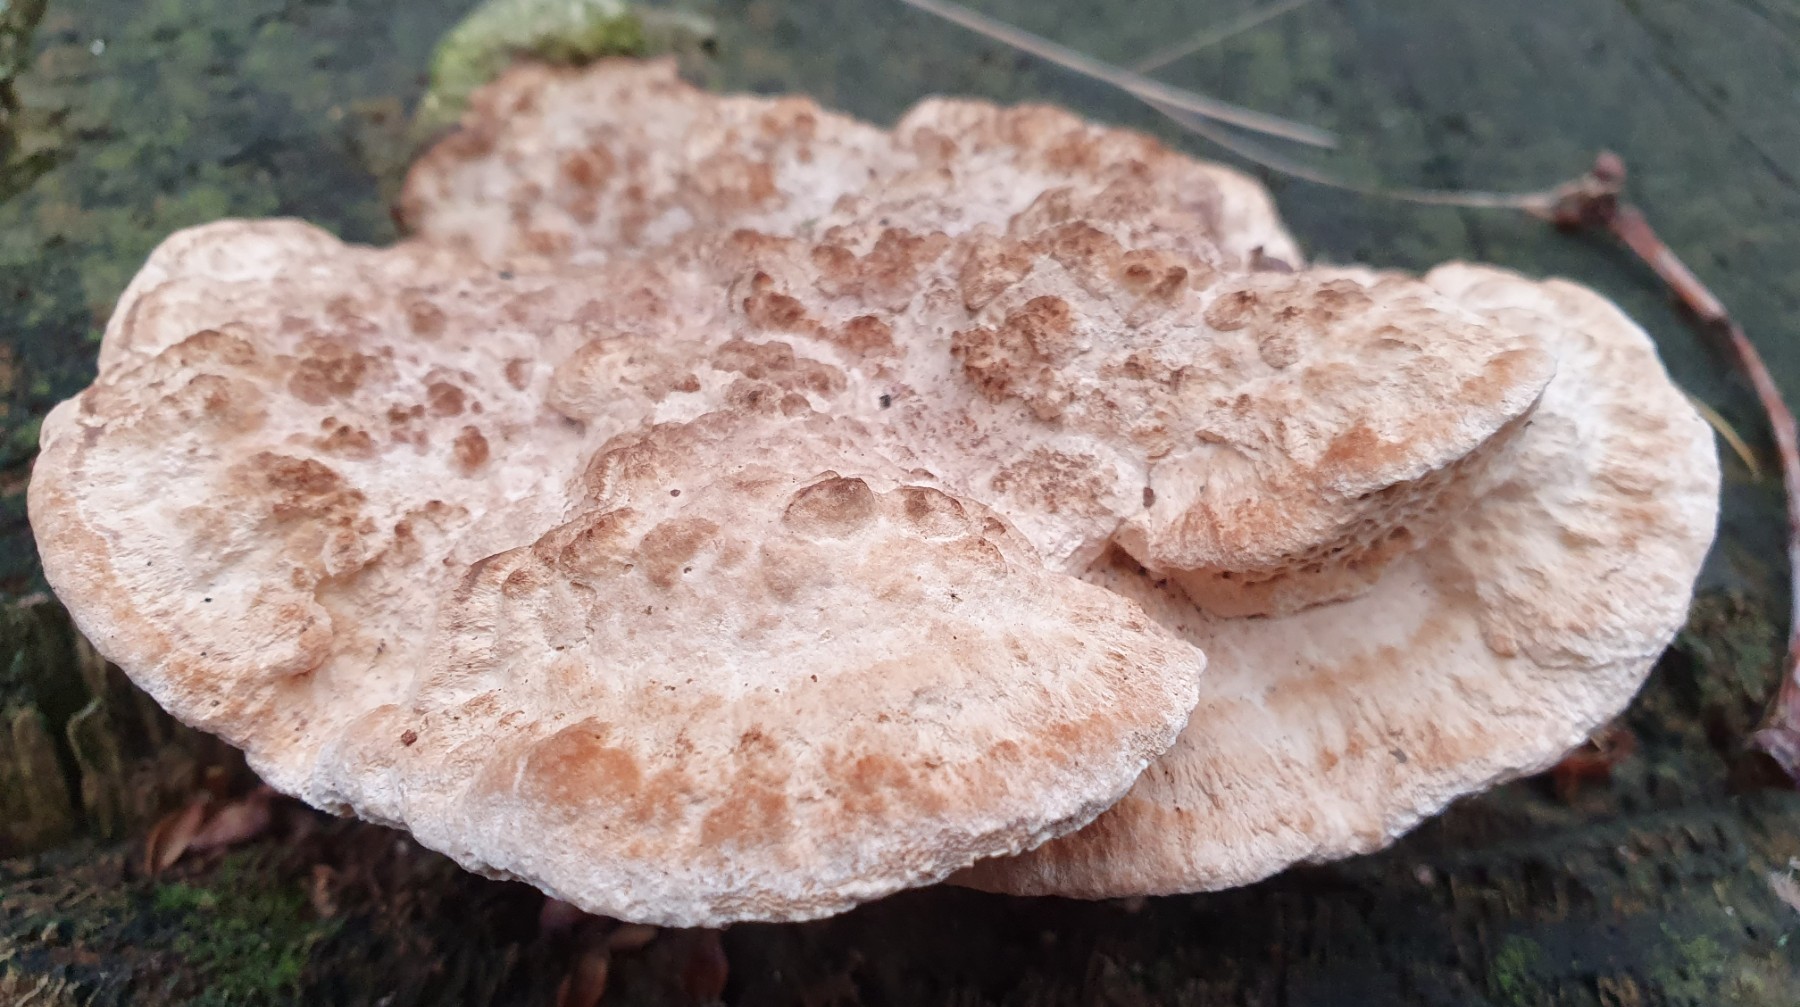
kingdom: Fungi
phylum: Basidiomycota
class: Agaricomycetes
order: Polyporales
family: Fomitopsidaceae
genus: Daedalea
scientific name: Daedalea quercina
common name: ege-labyrintsvamp
